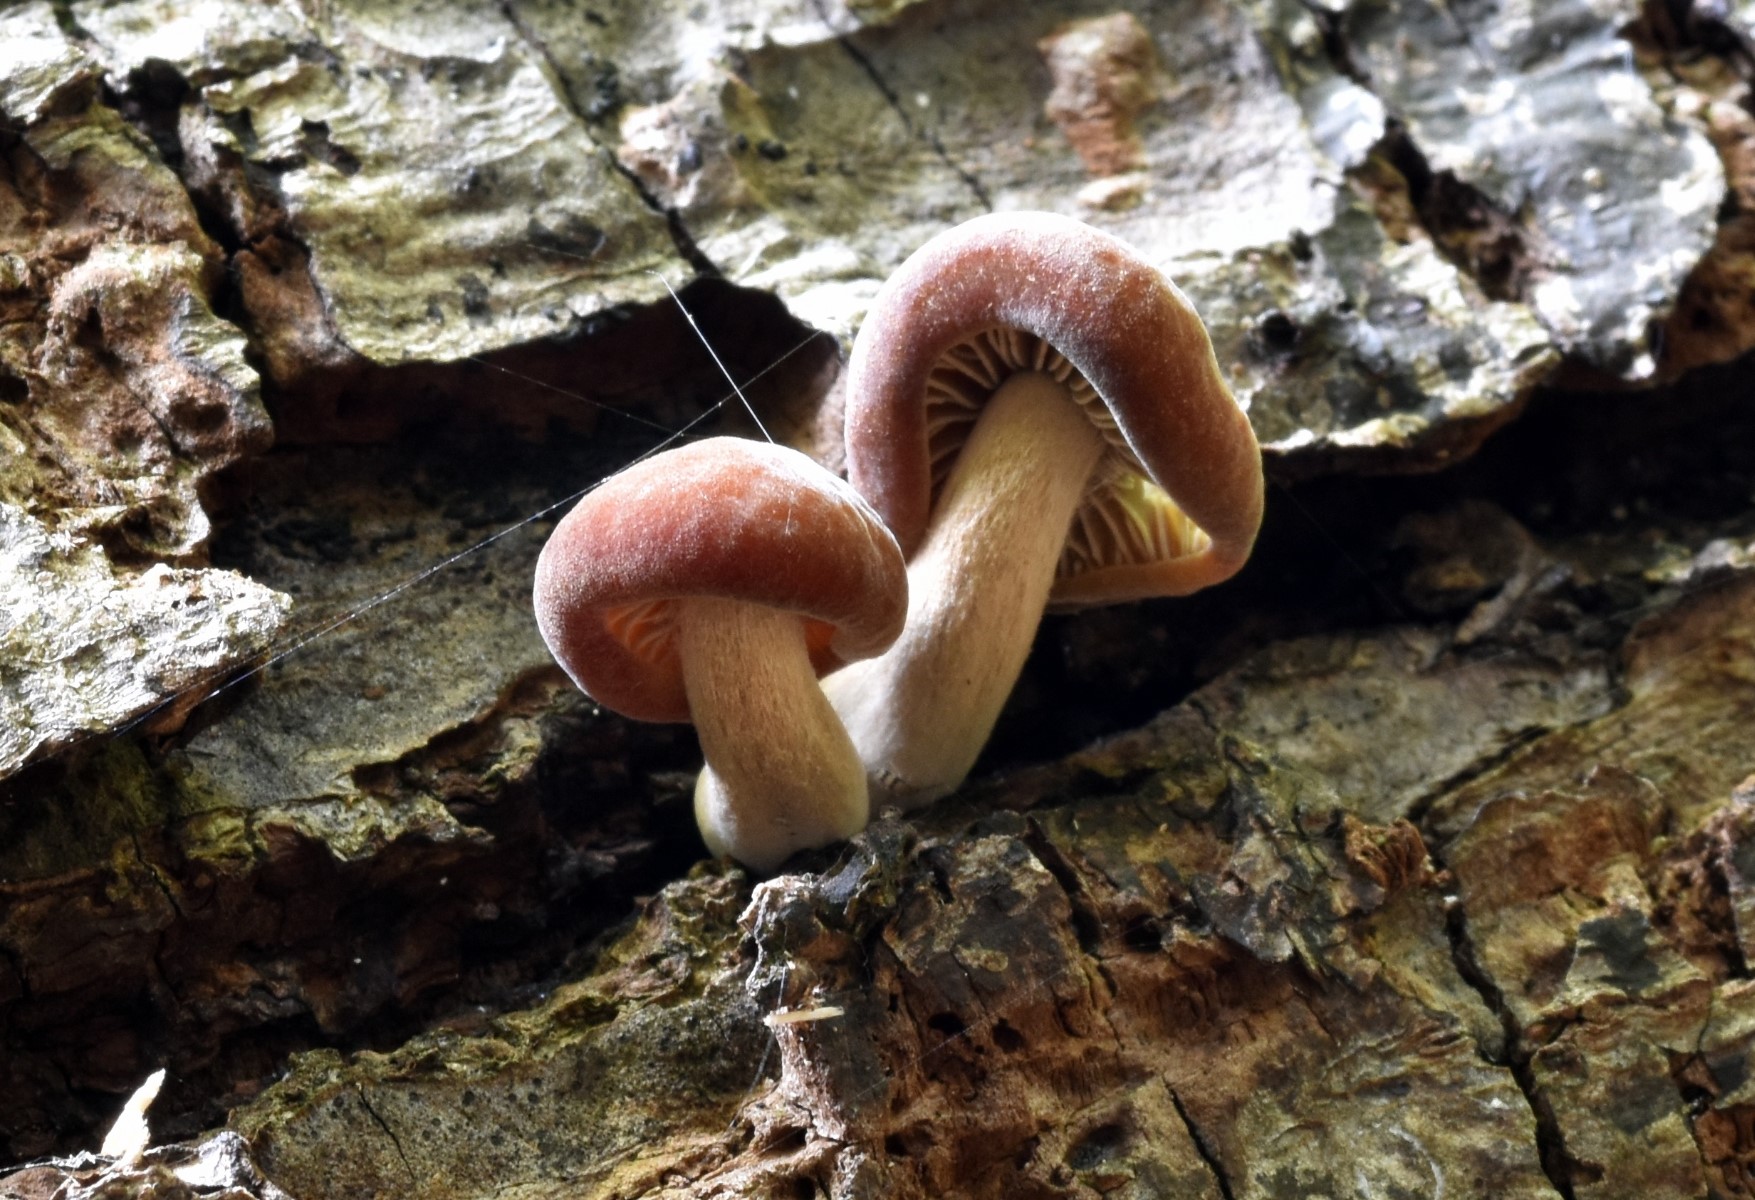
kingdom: Fungi
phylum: Basidiomycota
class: Agaricomycetes
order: Agaricales
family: Crepidotaceae
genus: Simocybe
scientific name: Simocybe sumptuosa
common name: stor skyggehat
